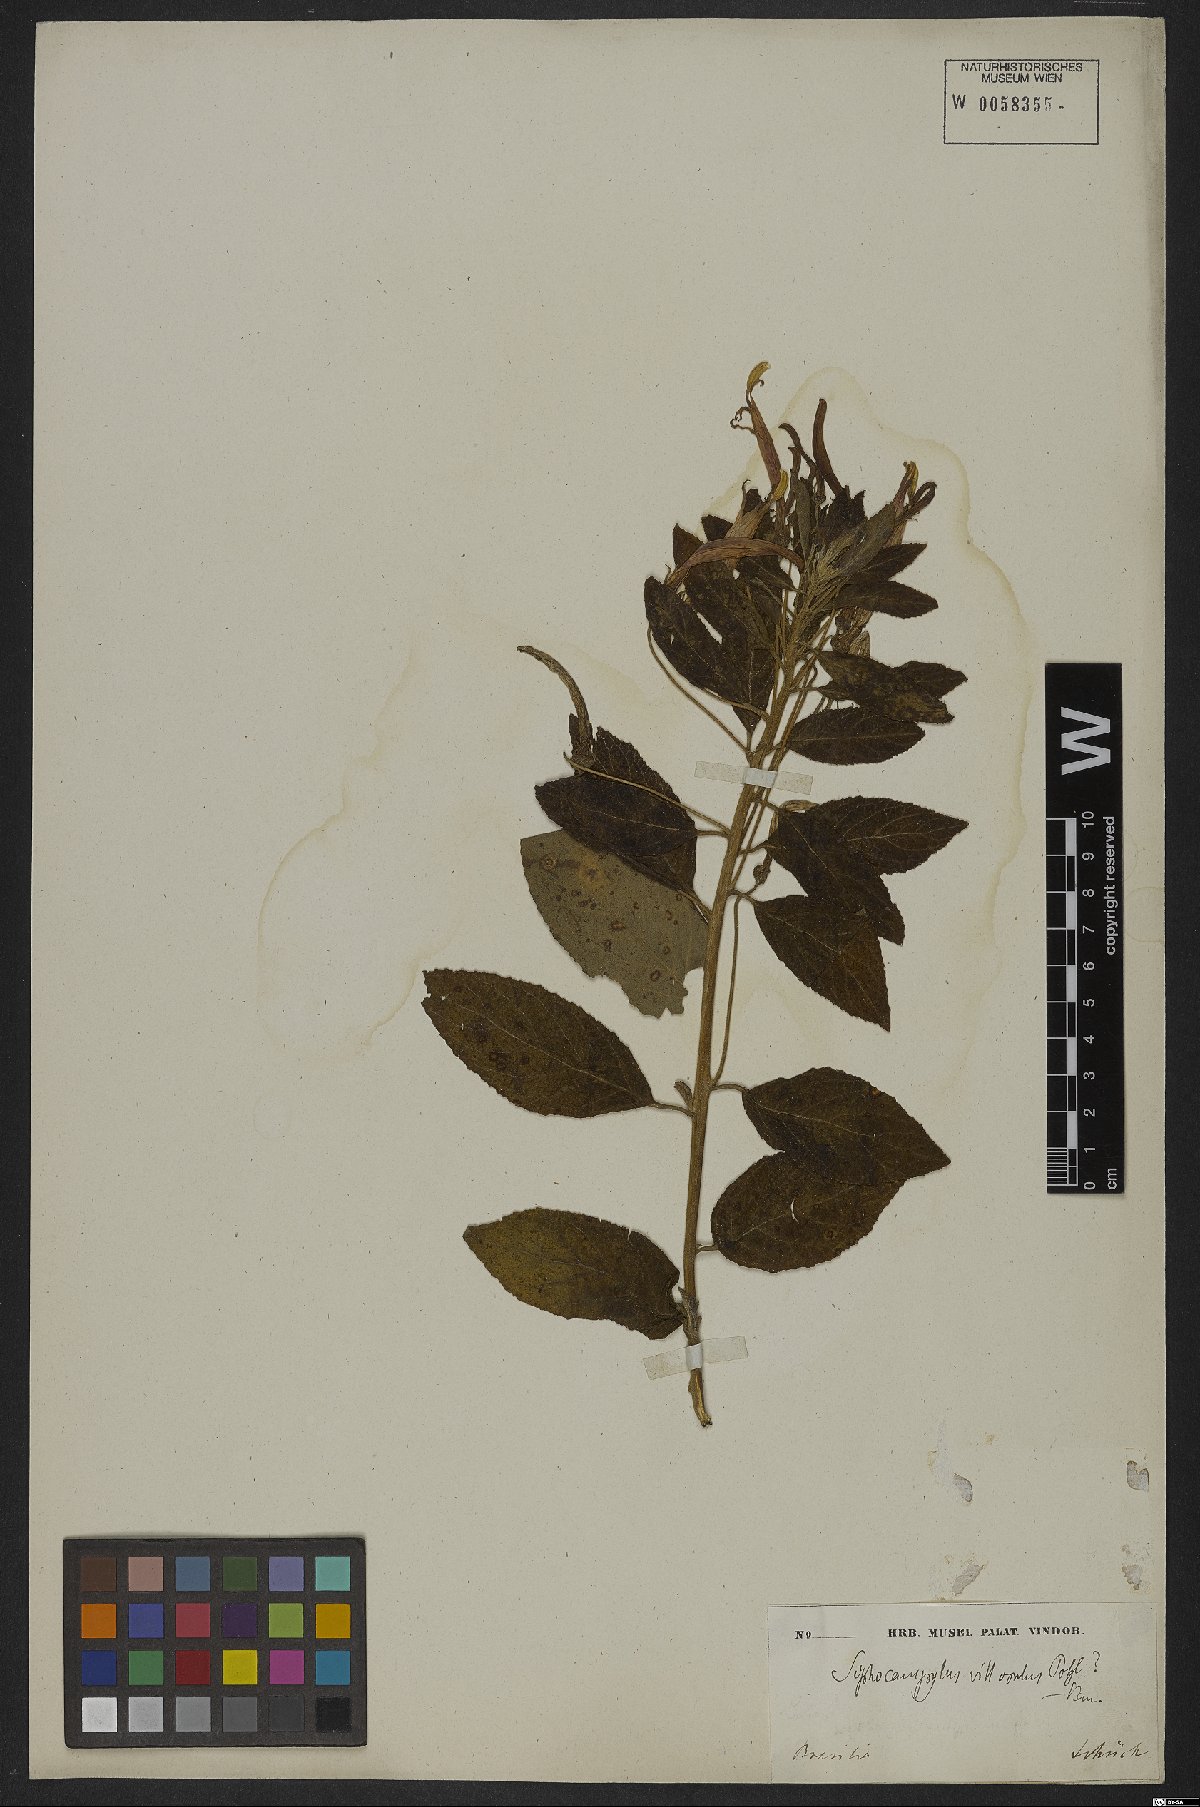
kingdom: Plantae
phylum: Tracheophyta
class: Magnoliopsida
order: Asterales
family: Campanulaceae
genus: Siphocampylus
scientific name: Siphocampylus macropodus
